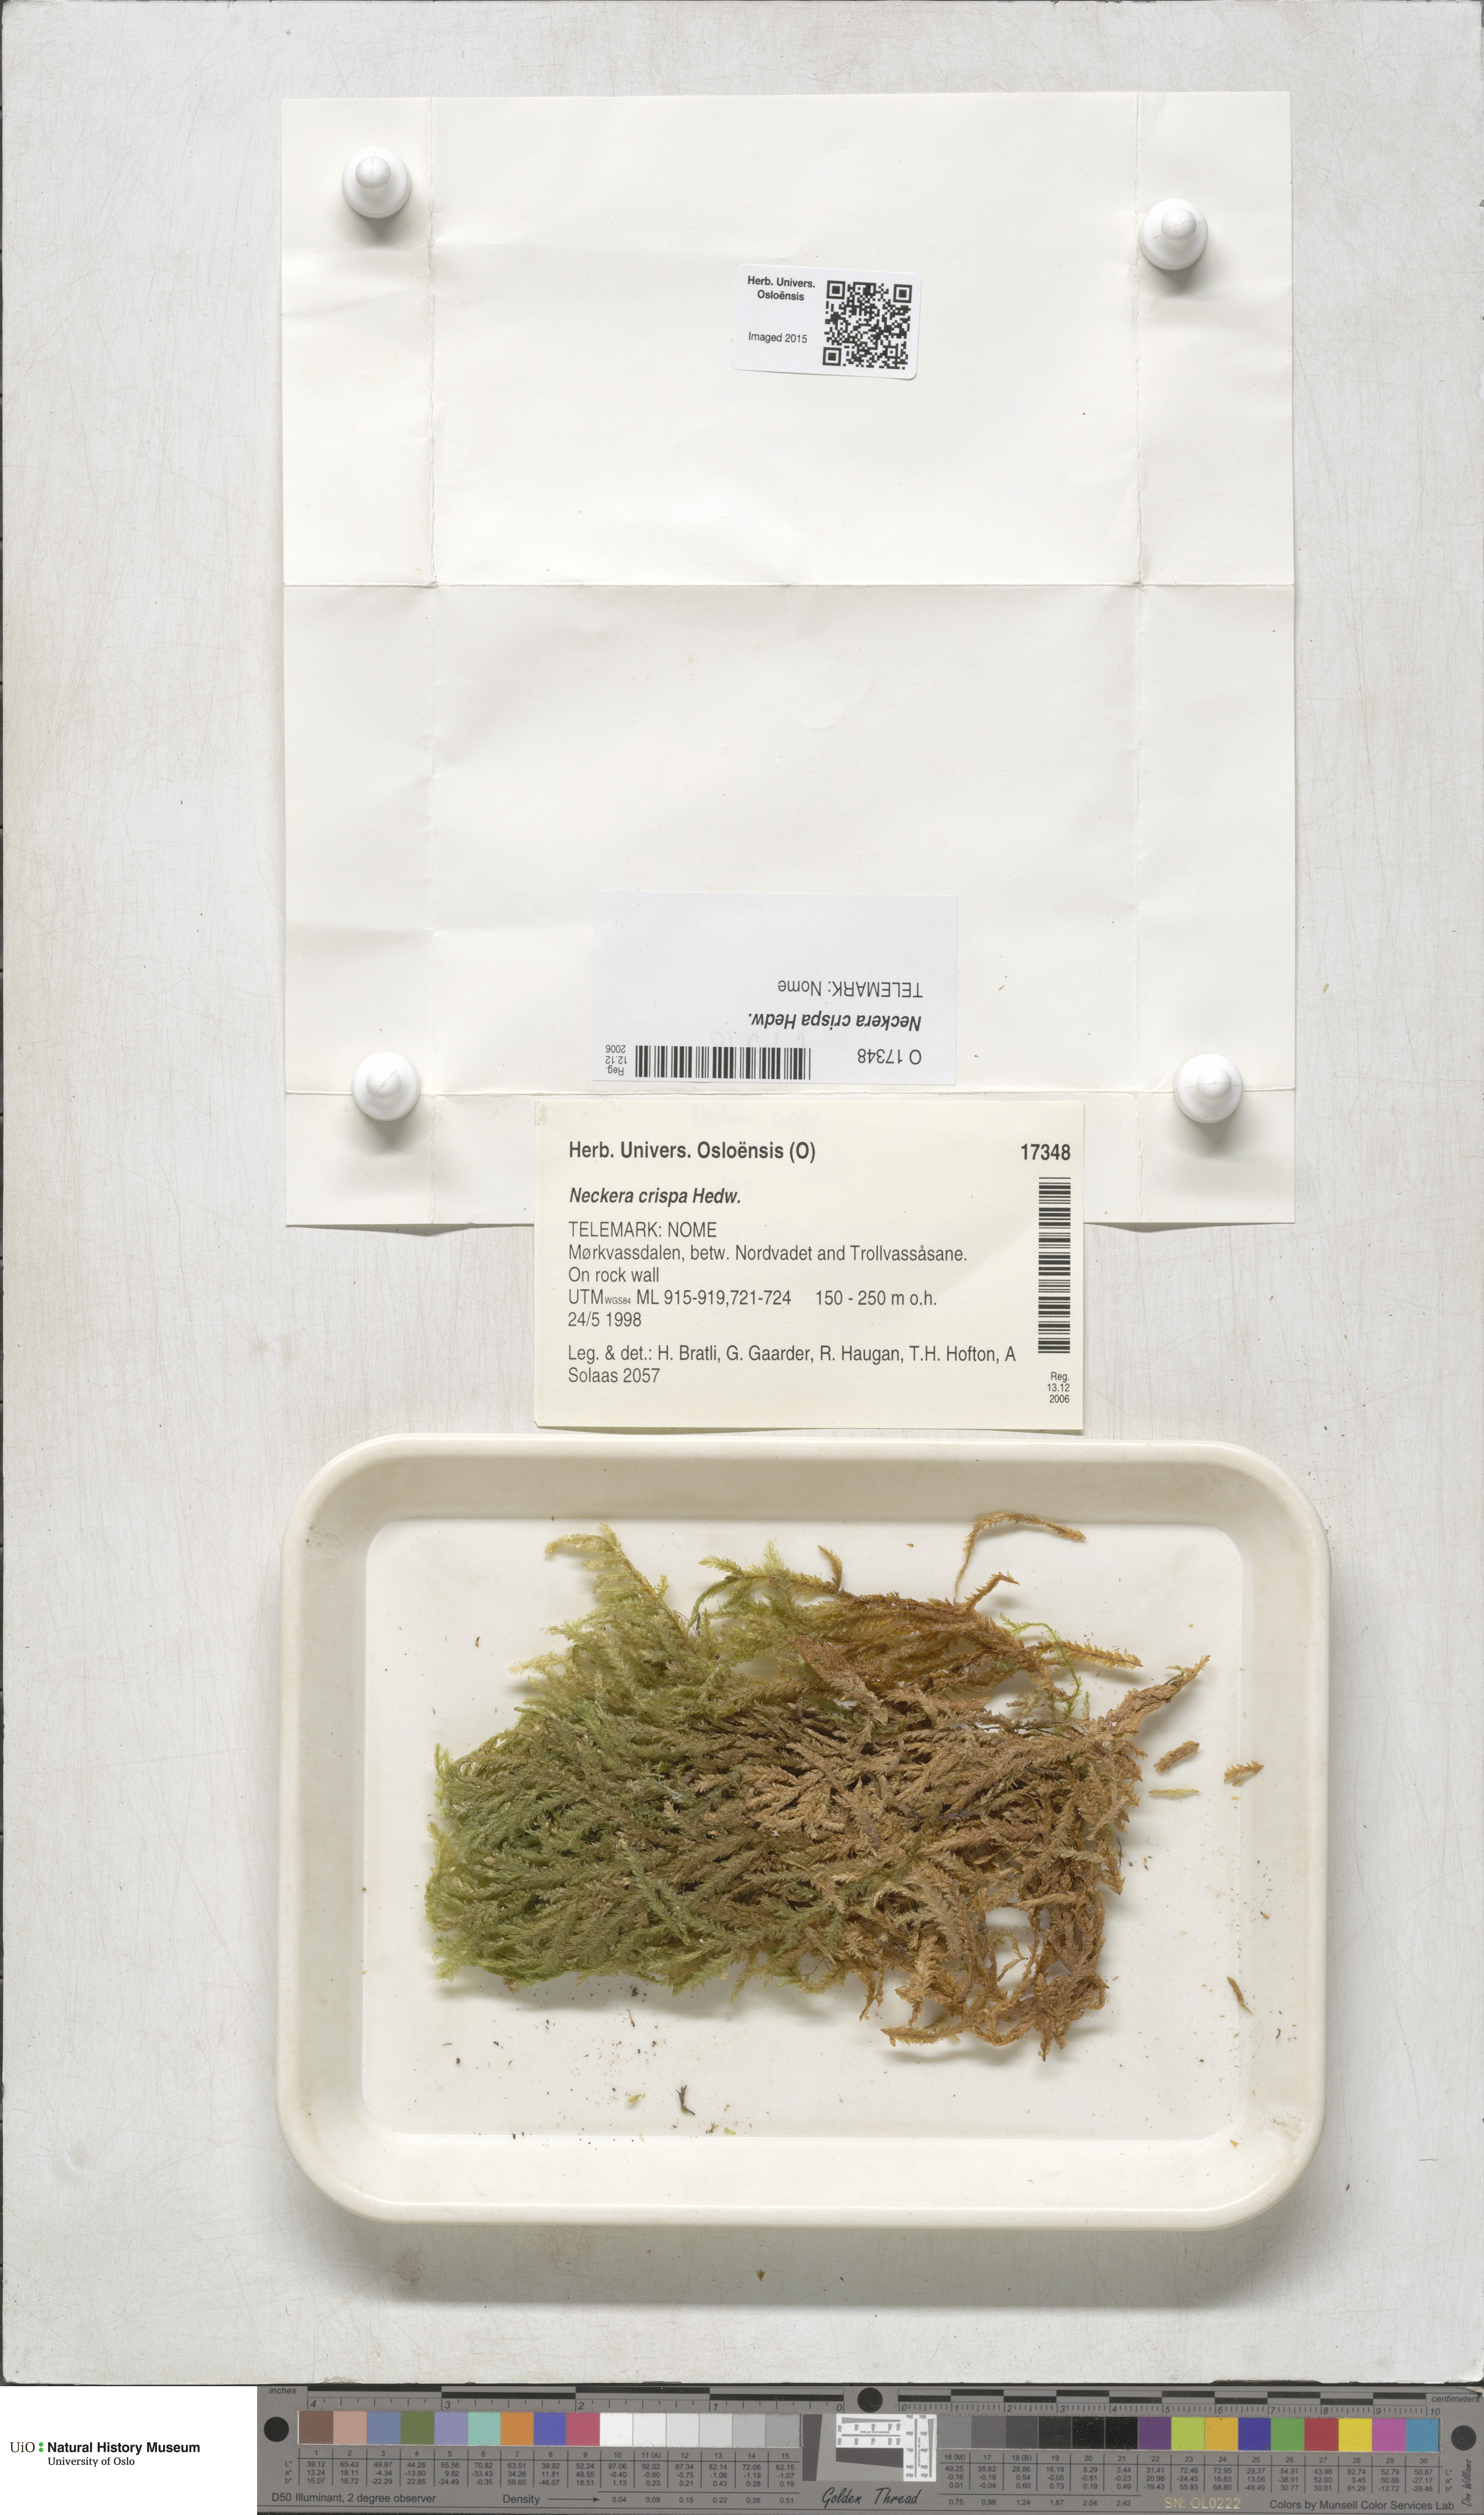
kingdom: Plantae
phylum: Bryophyta
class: Bryopsida
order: Hypnales
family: Neckeraceae
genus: Exsertotheca
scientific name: Exsertotheca crispa
